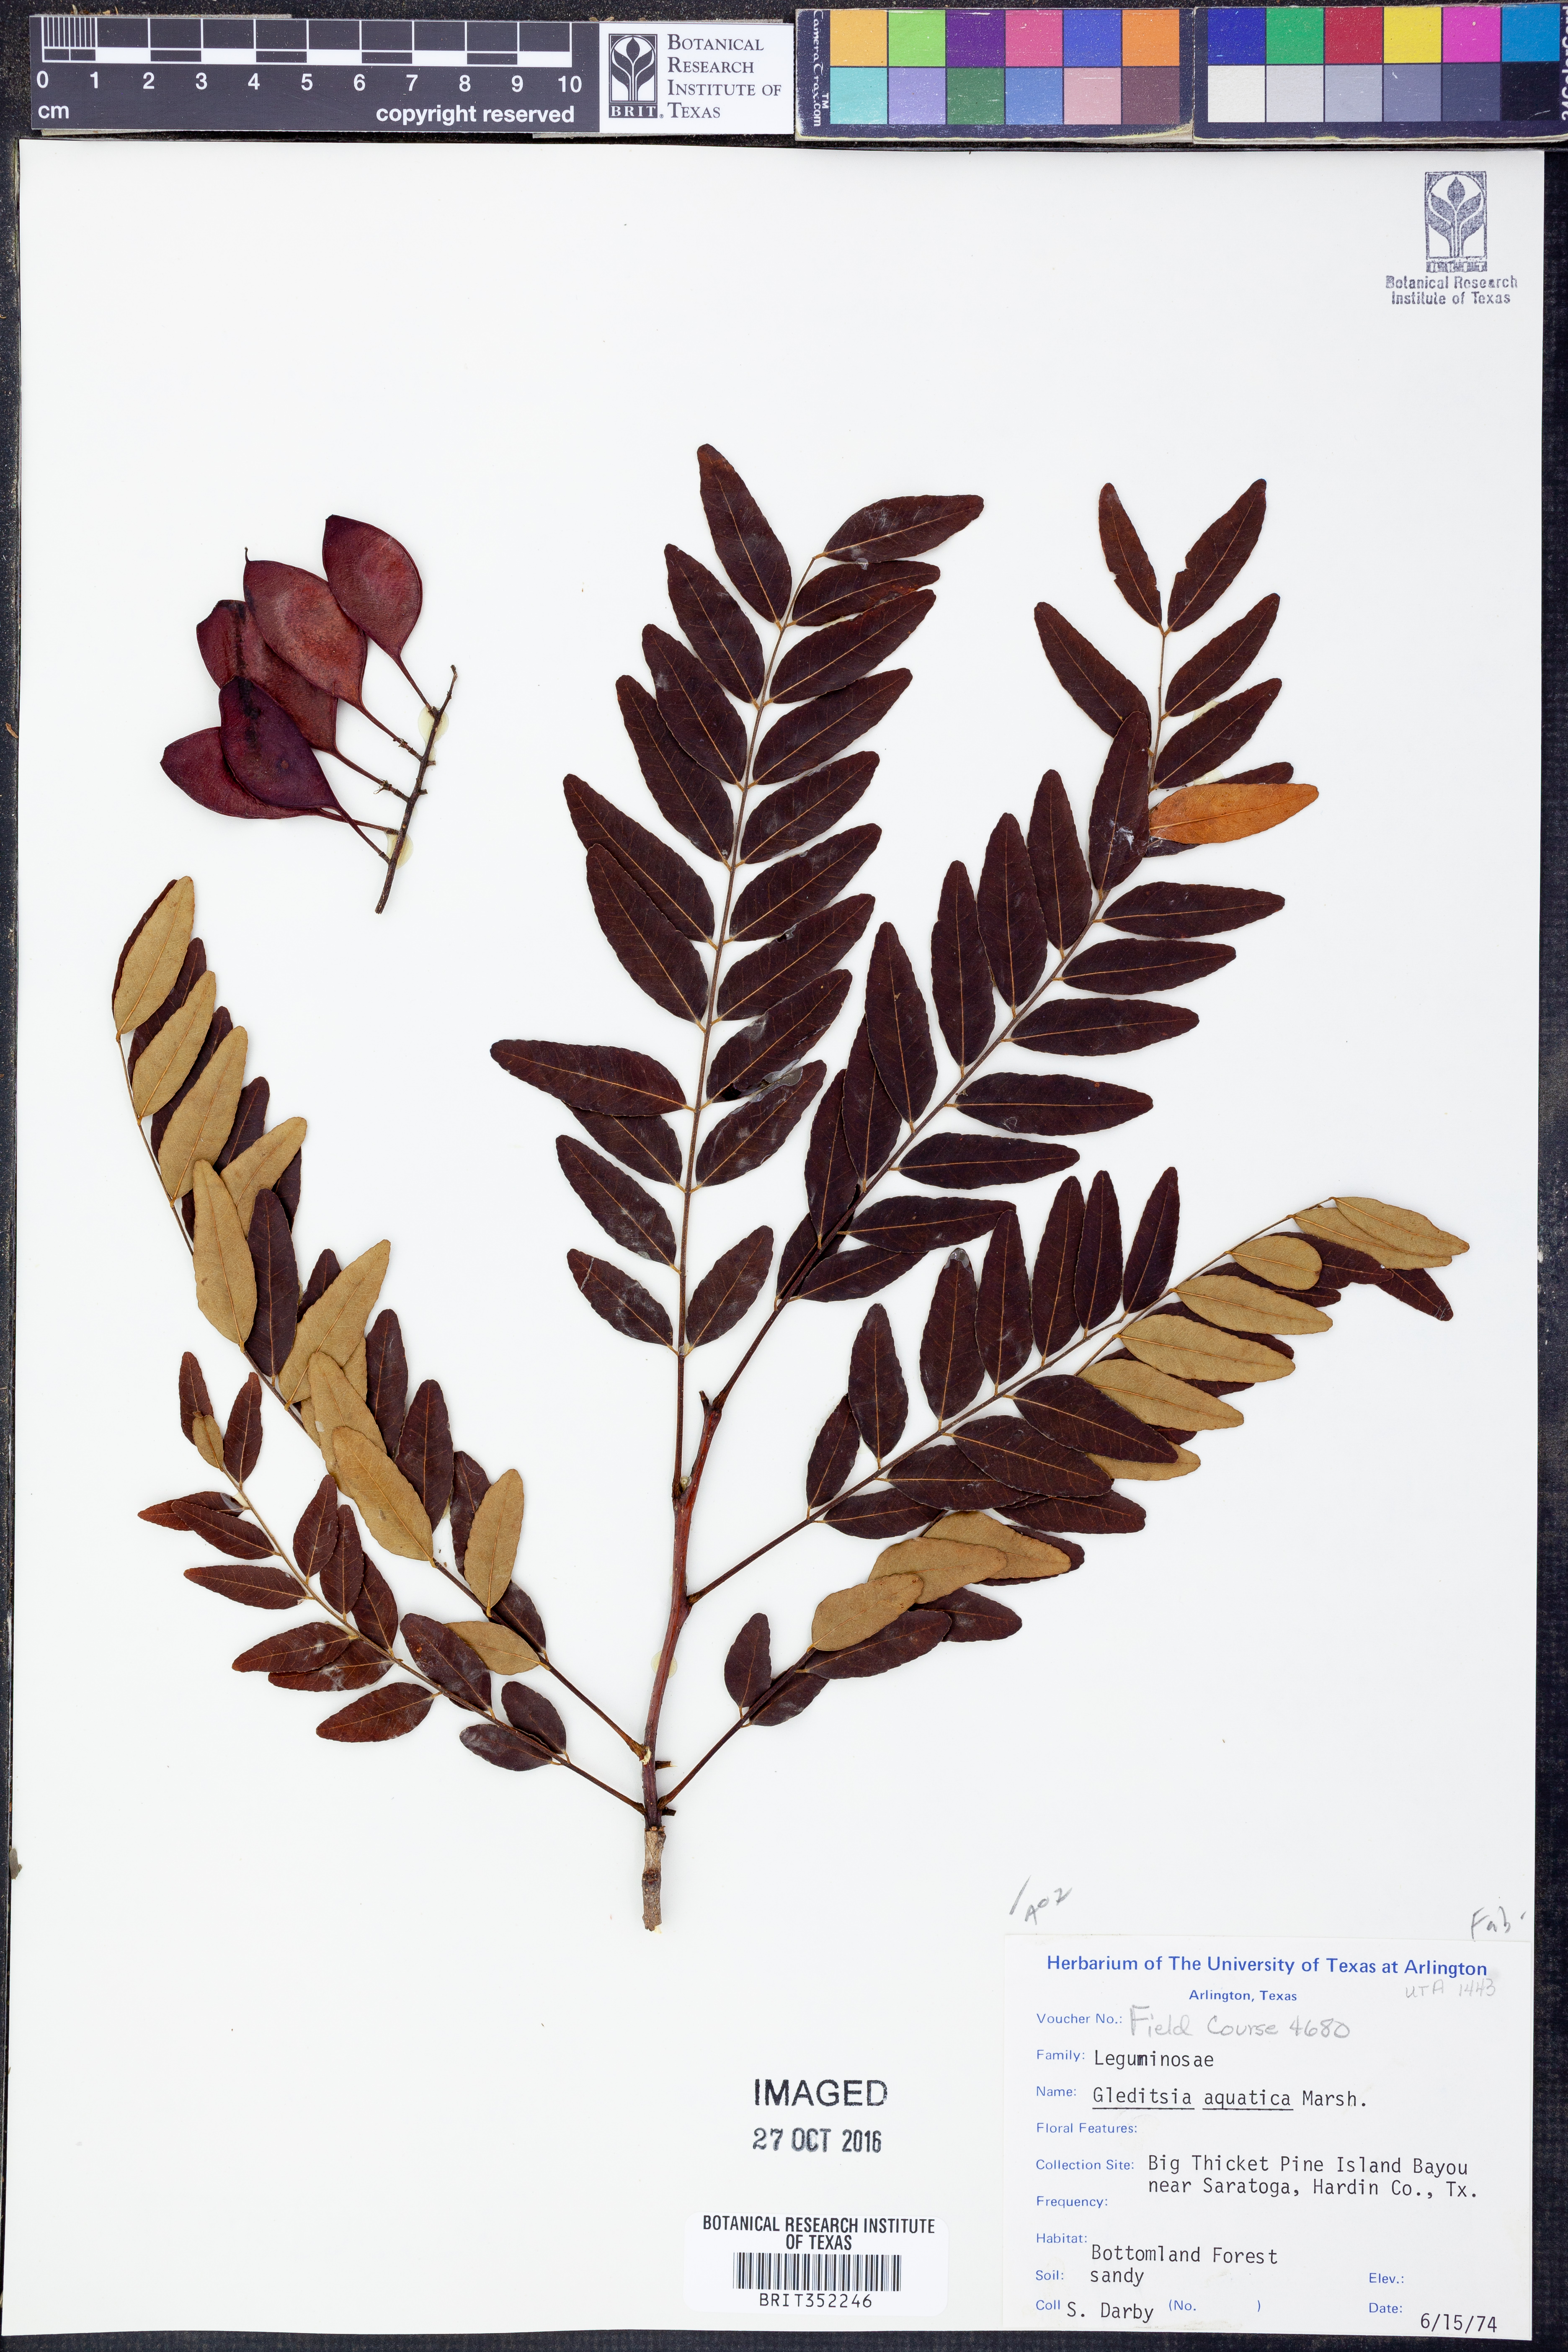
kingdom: Plantae
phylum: Tracheophyta
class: Magnoliopsida
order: Fabales
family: Fabaceae
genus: Gleditsia
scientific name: Gleditsia aquatica
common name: Swamp-locust
